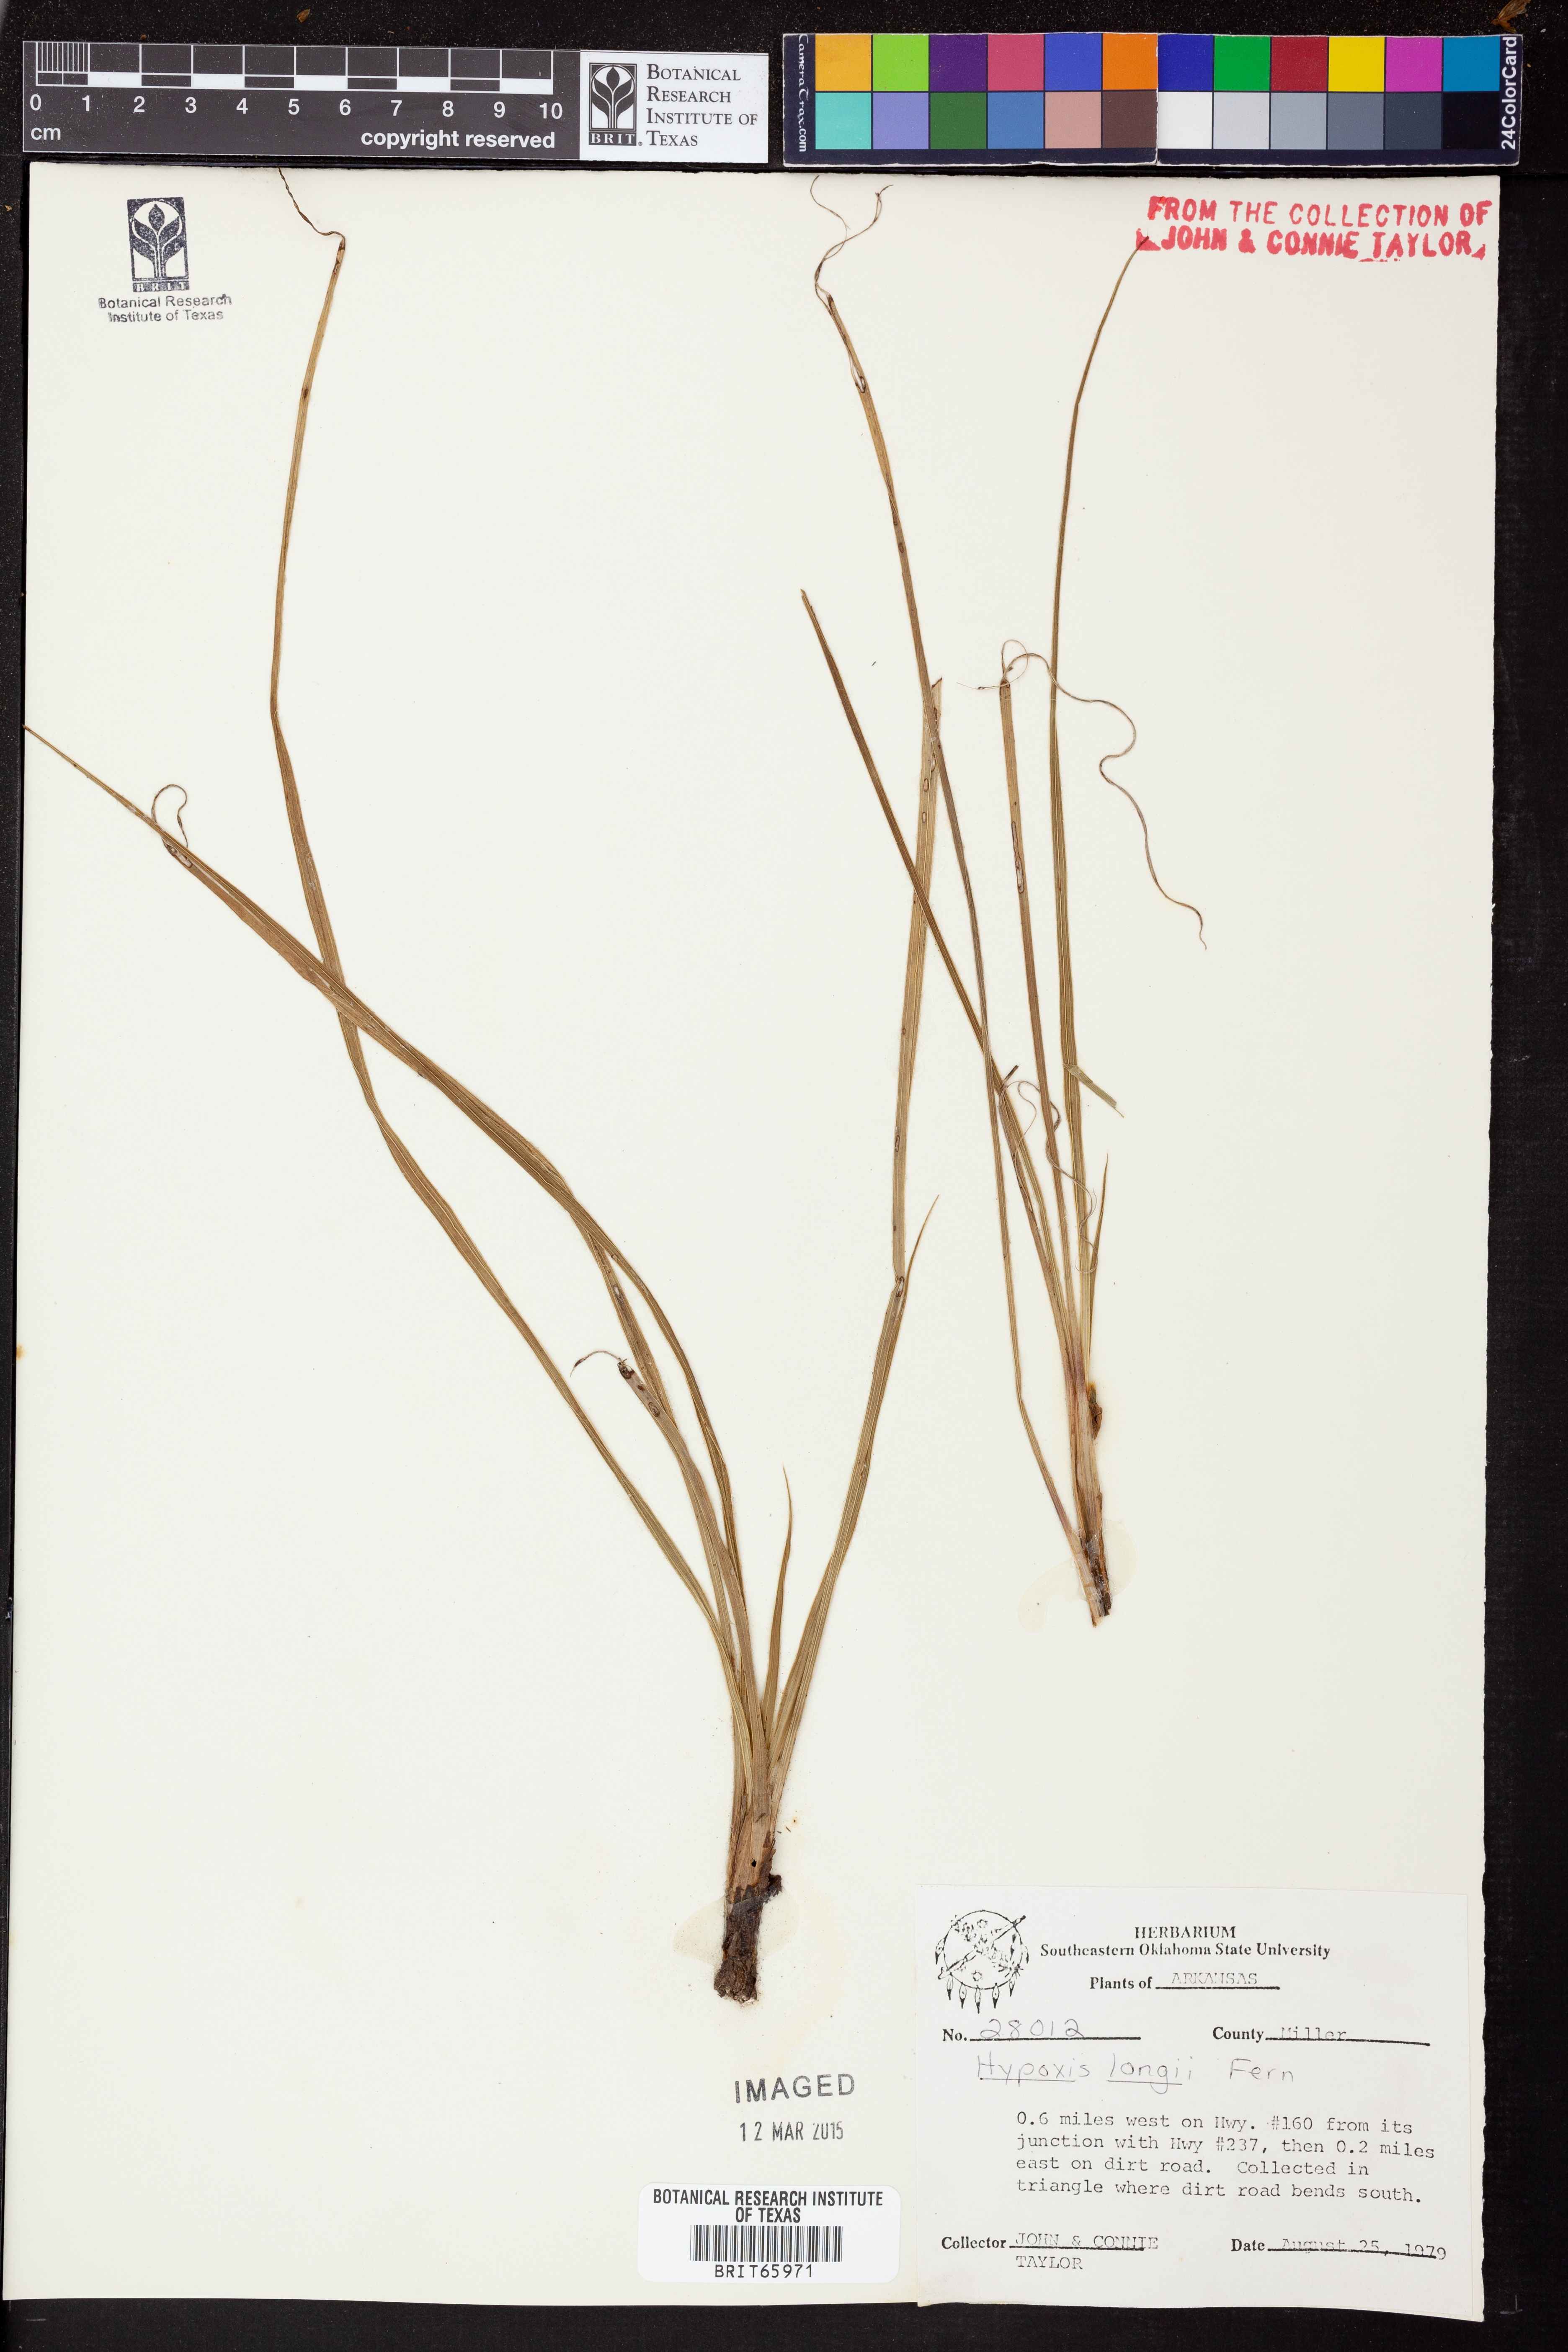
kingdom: Plantae
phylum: Tracheophyta
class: Liliopsida
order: Asparagales
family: Hypoxidaceae
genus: Hypoxis
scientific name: Hypoxis sessilis
